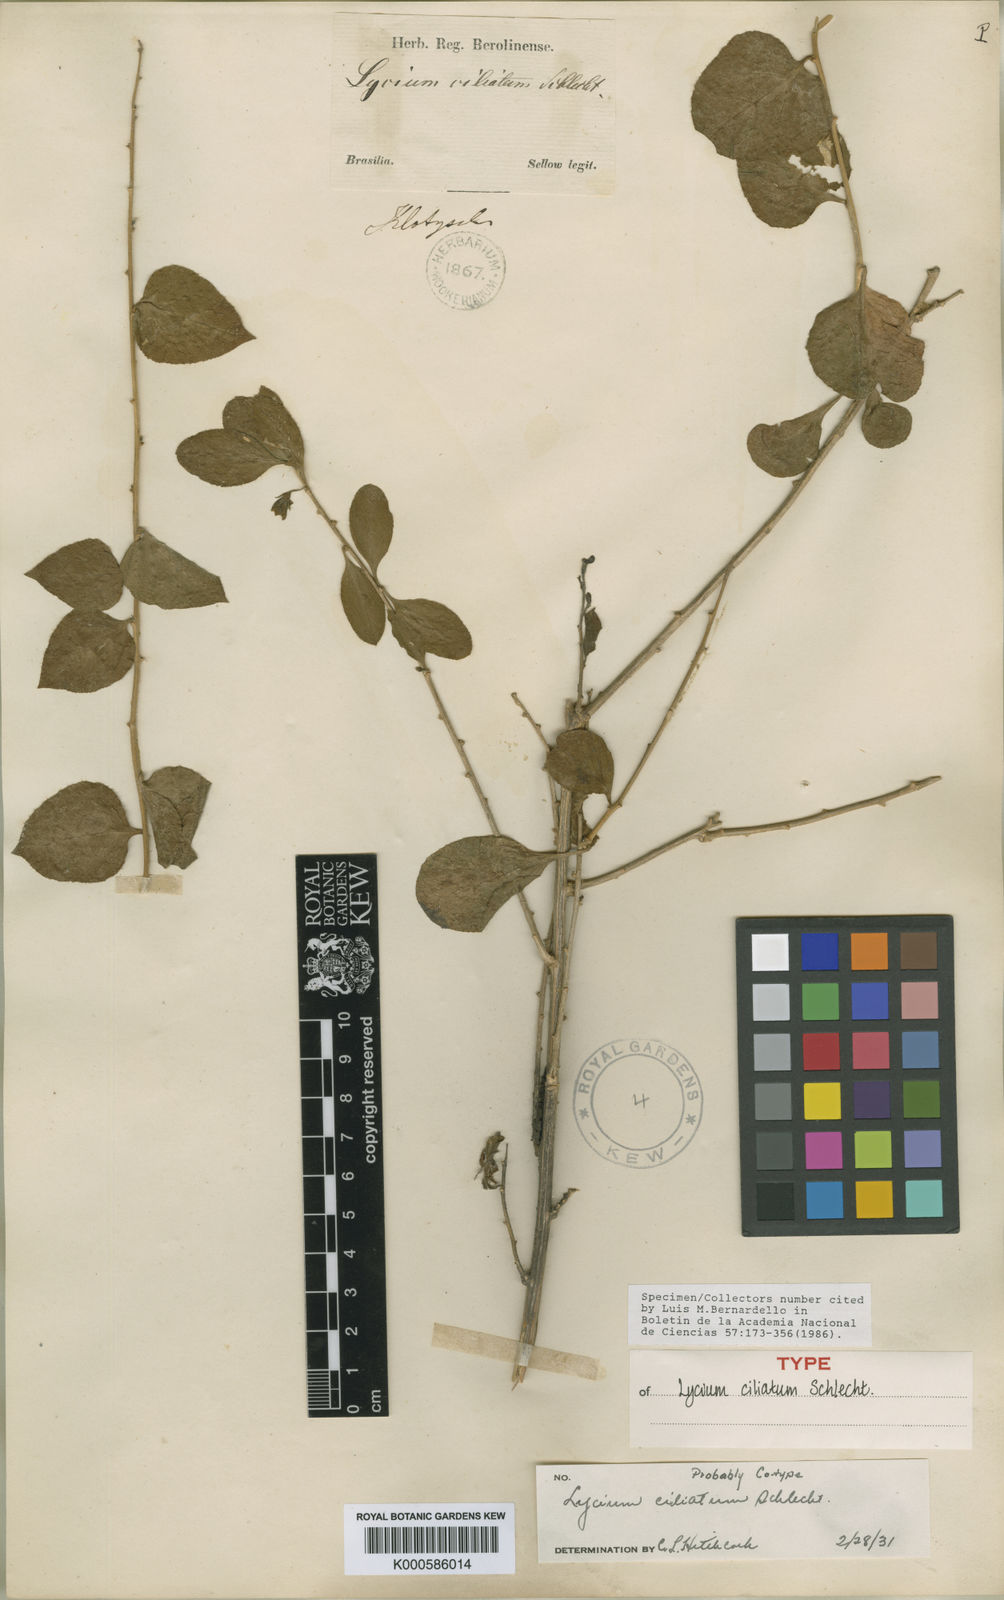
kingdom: Plantae
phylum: Tracheophyta
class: Magnoliopsida
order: Solanales
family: Solanaceae
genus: Lycium
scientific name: Lycium ciliatum
